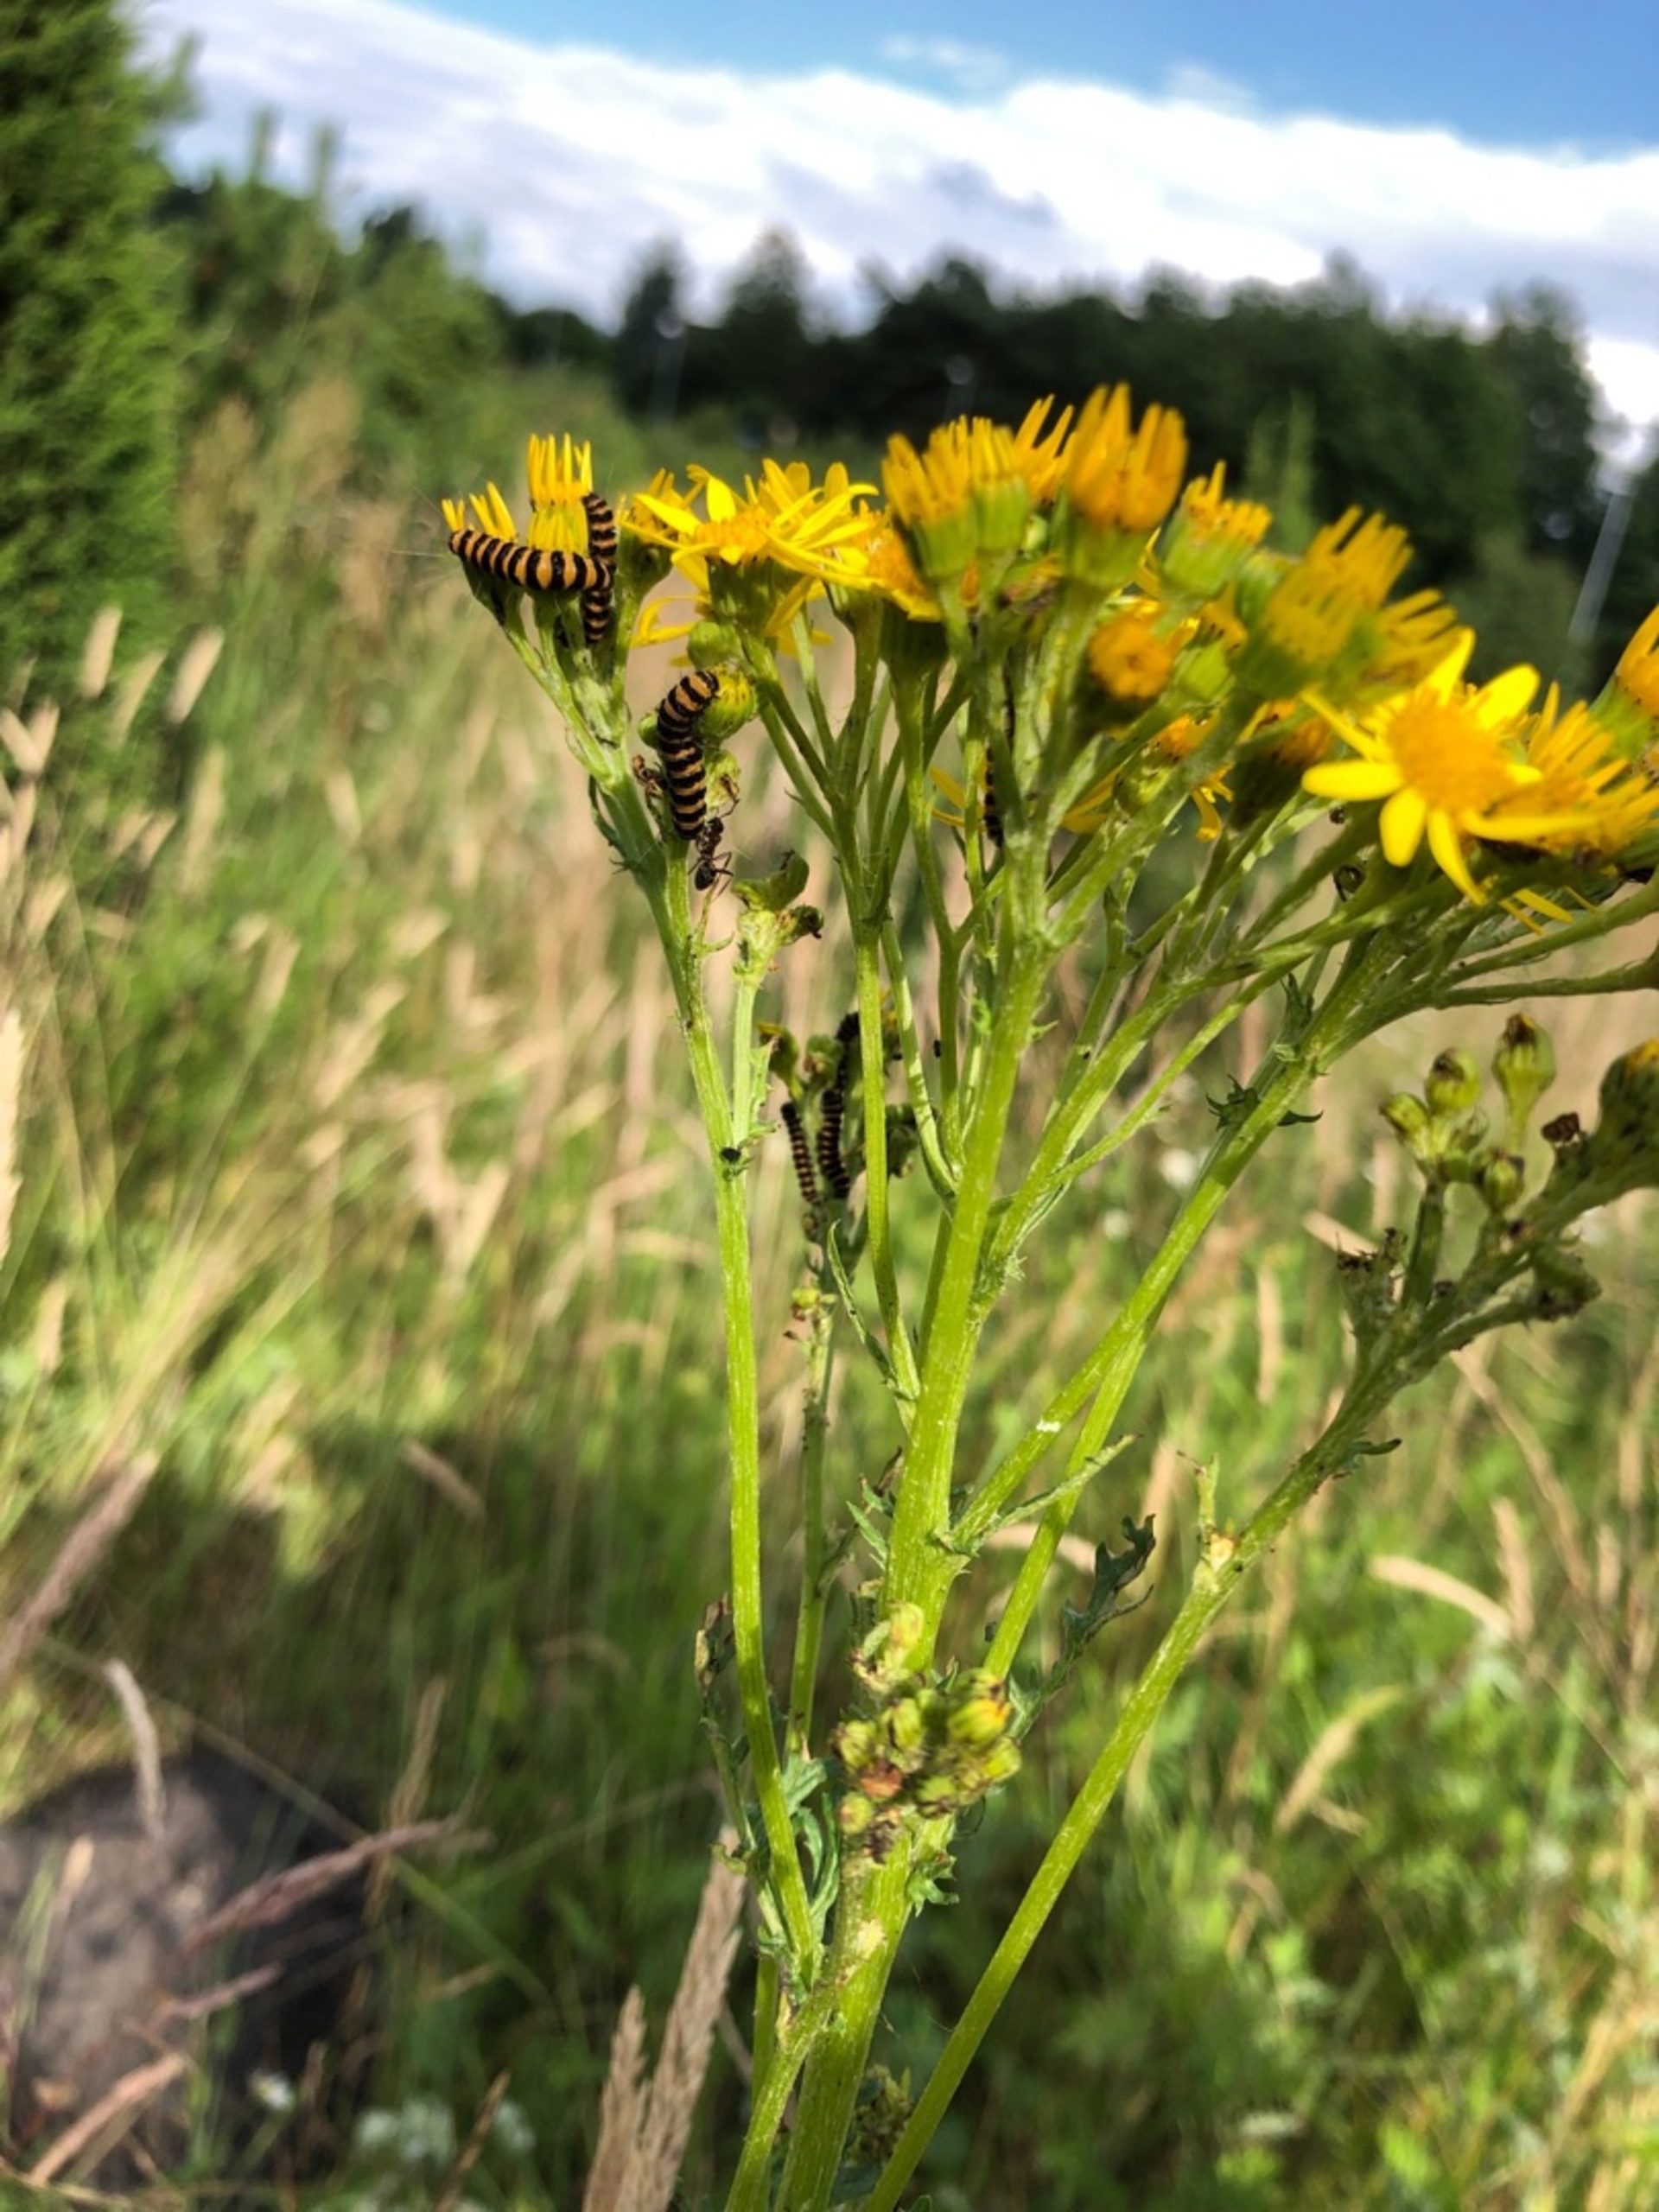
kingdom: Animalia
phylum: Arthropoda
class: Insecta
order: Lepidoptera
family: Erebidae
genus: Tyria
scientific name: Tyria jacobaeae
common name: Blodplet
